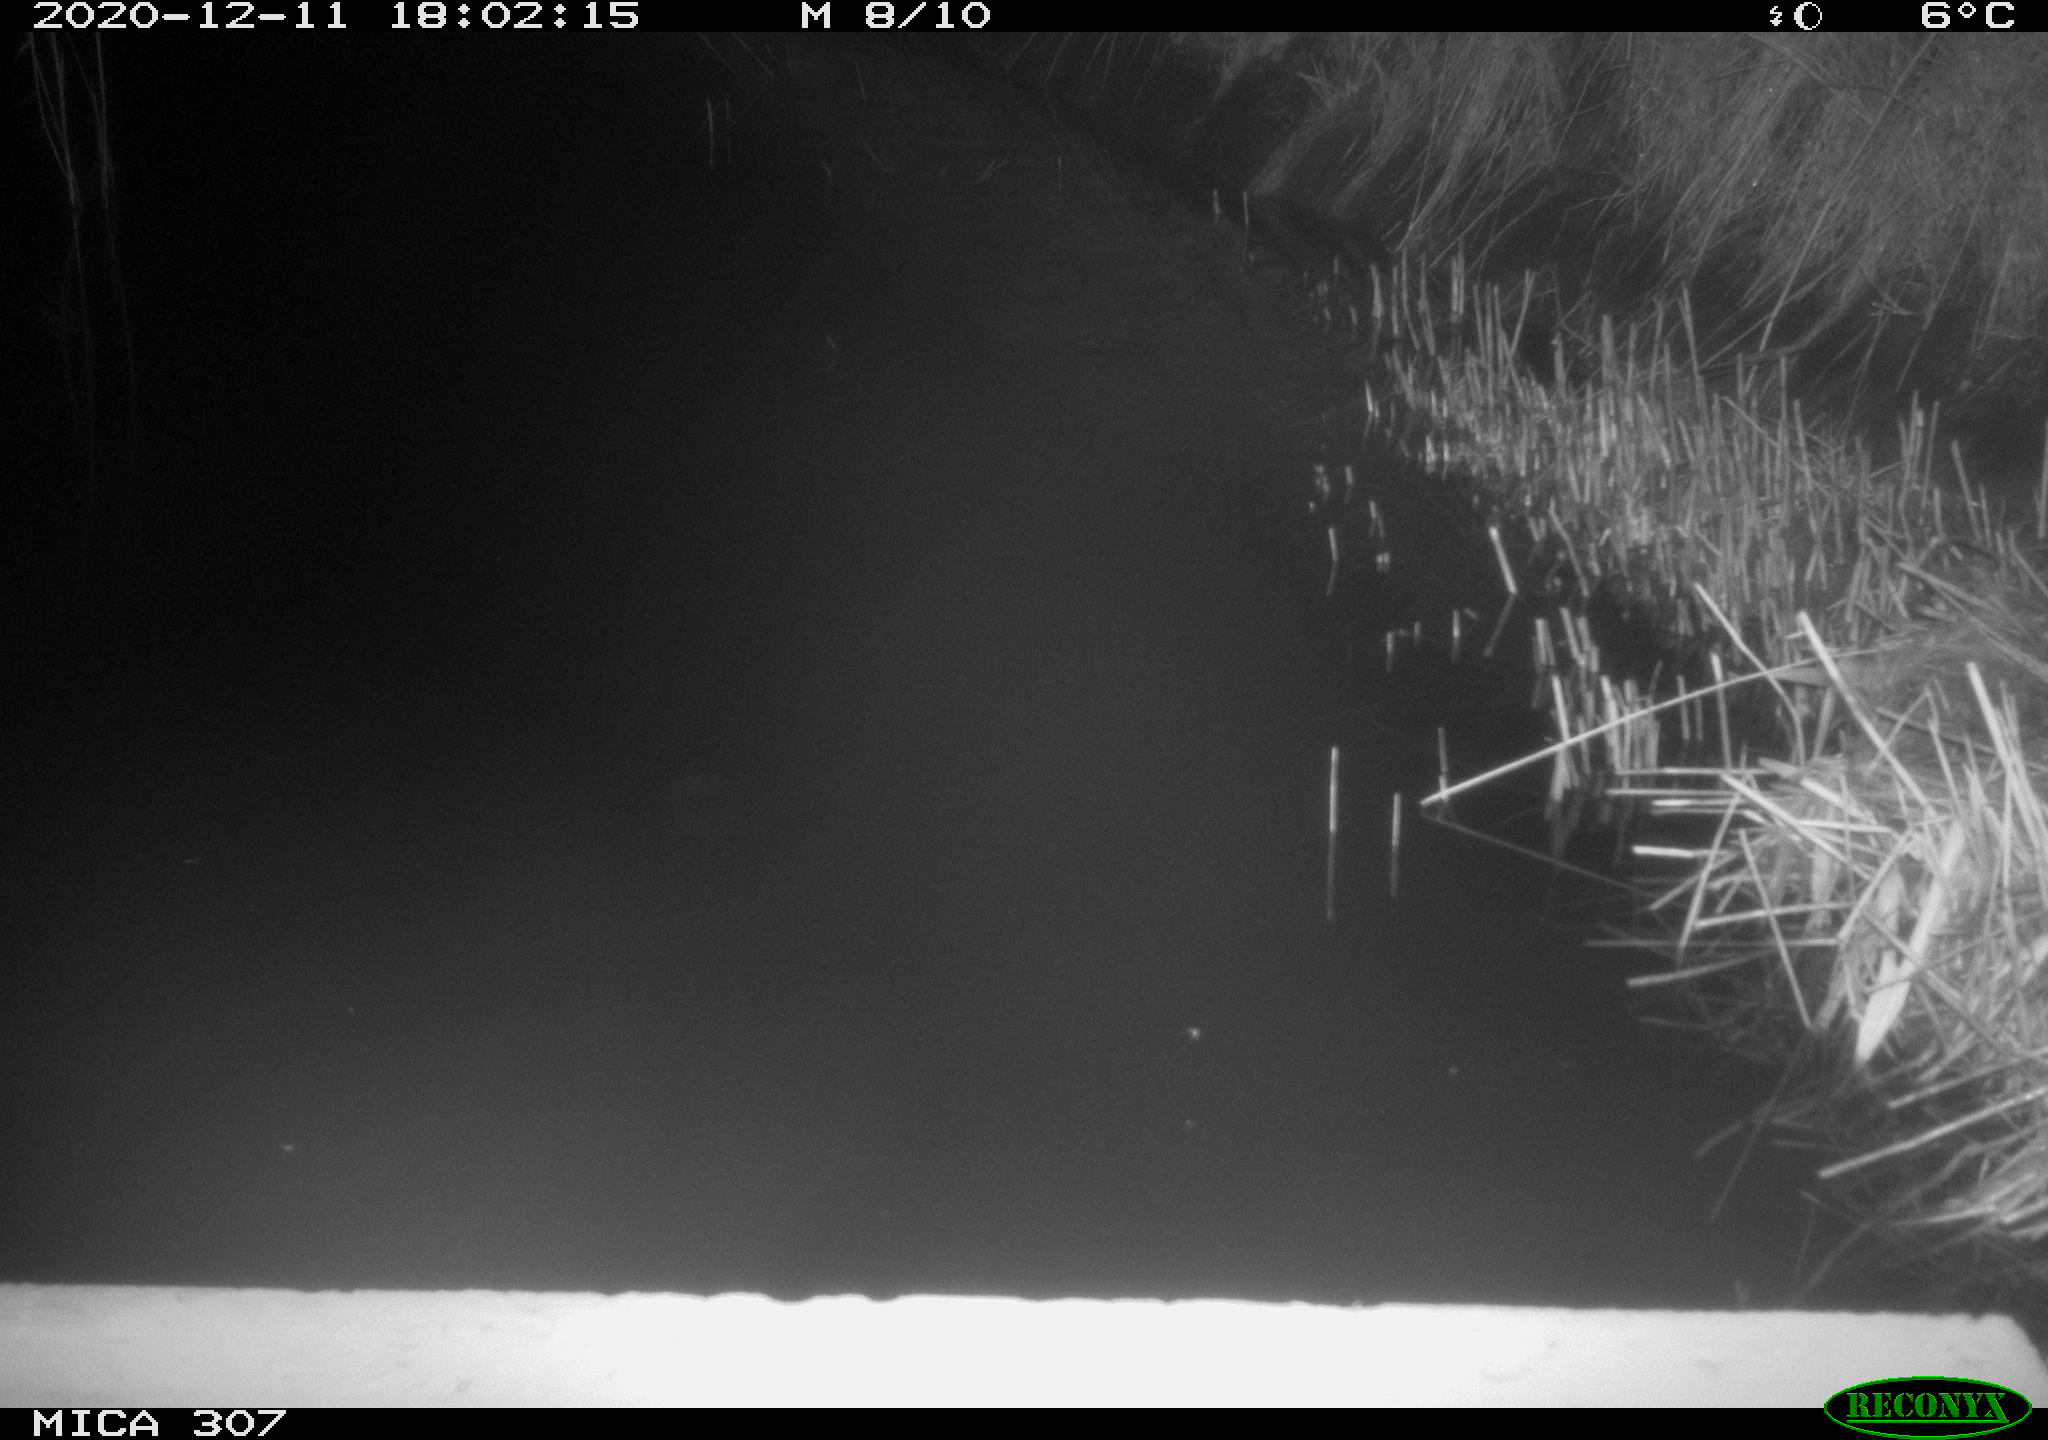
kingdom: Animalia
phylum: Chordata
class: Mammalia
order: Rodentia
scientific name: Rodentia
